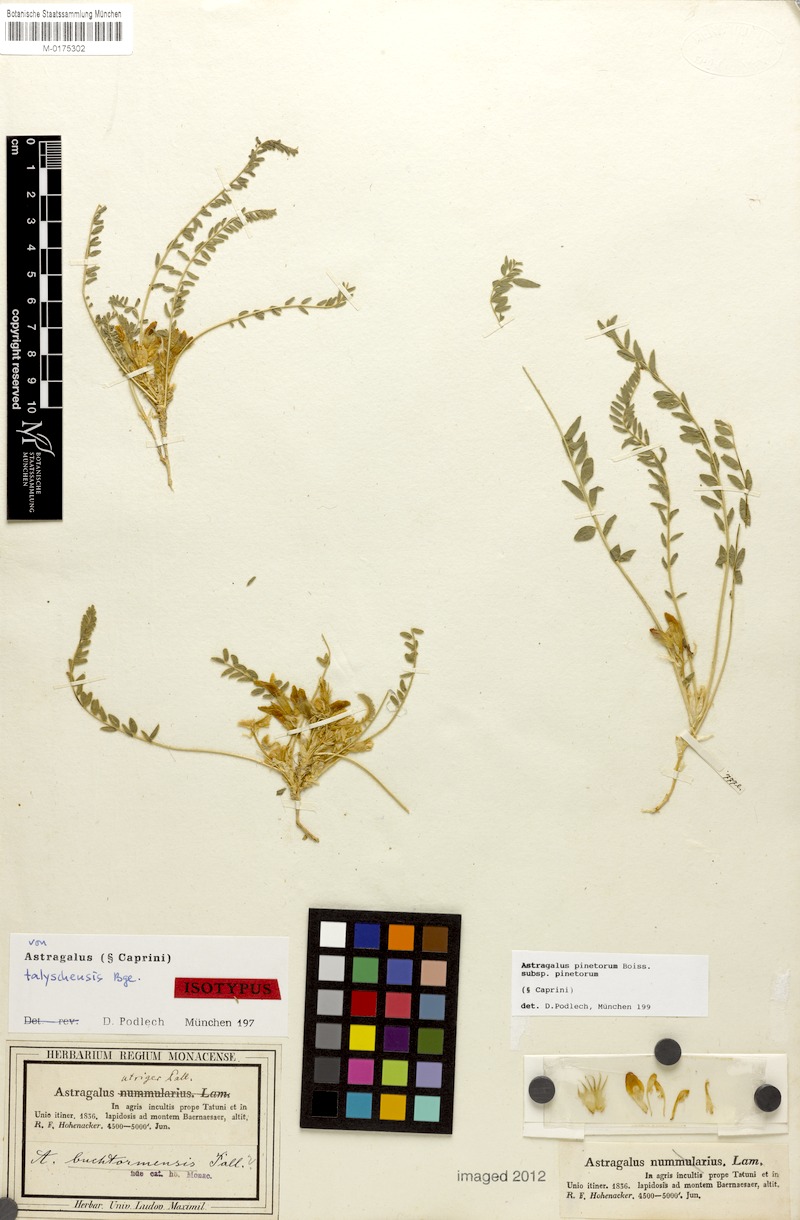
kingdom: Plantae
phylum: Tracheophyta
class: Magnoliopsida
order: Fabales
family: Fabaceae
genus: Astragalus
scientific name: Astragalus pinetorum
